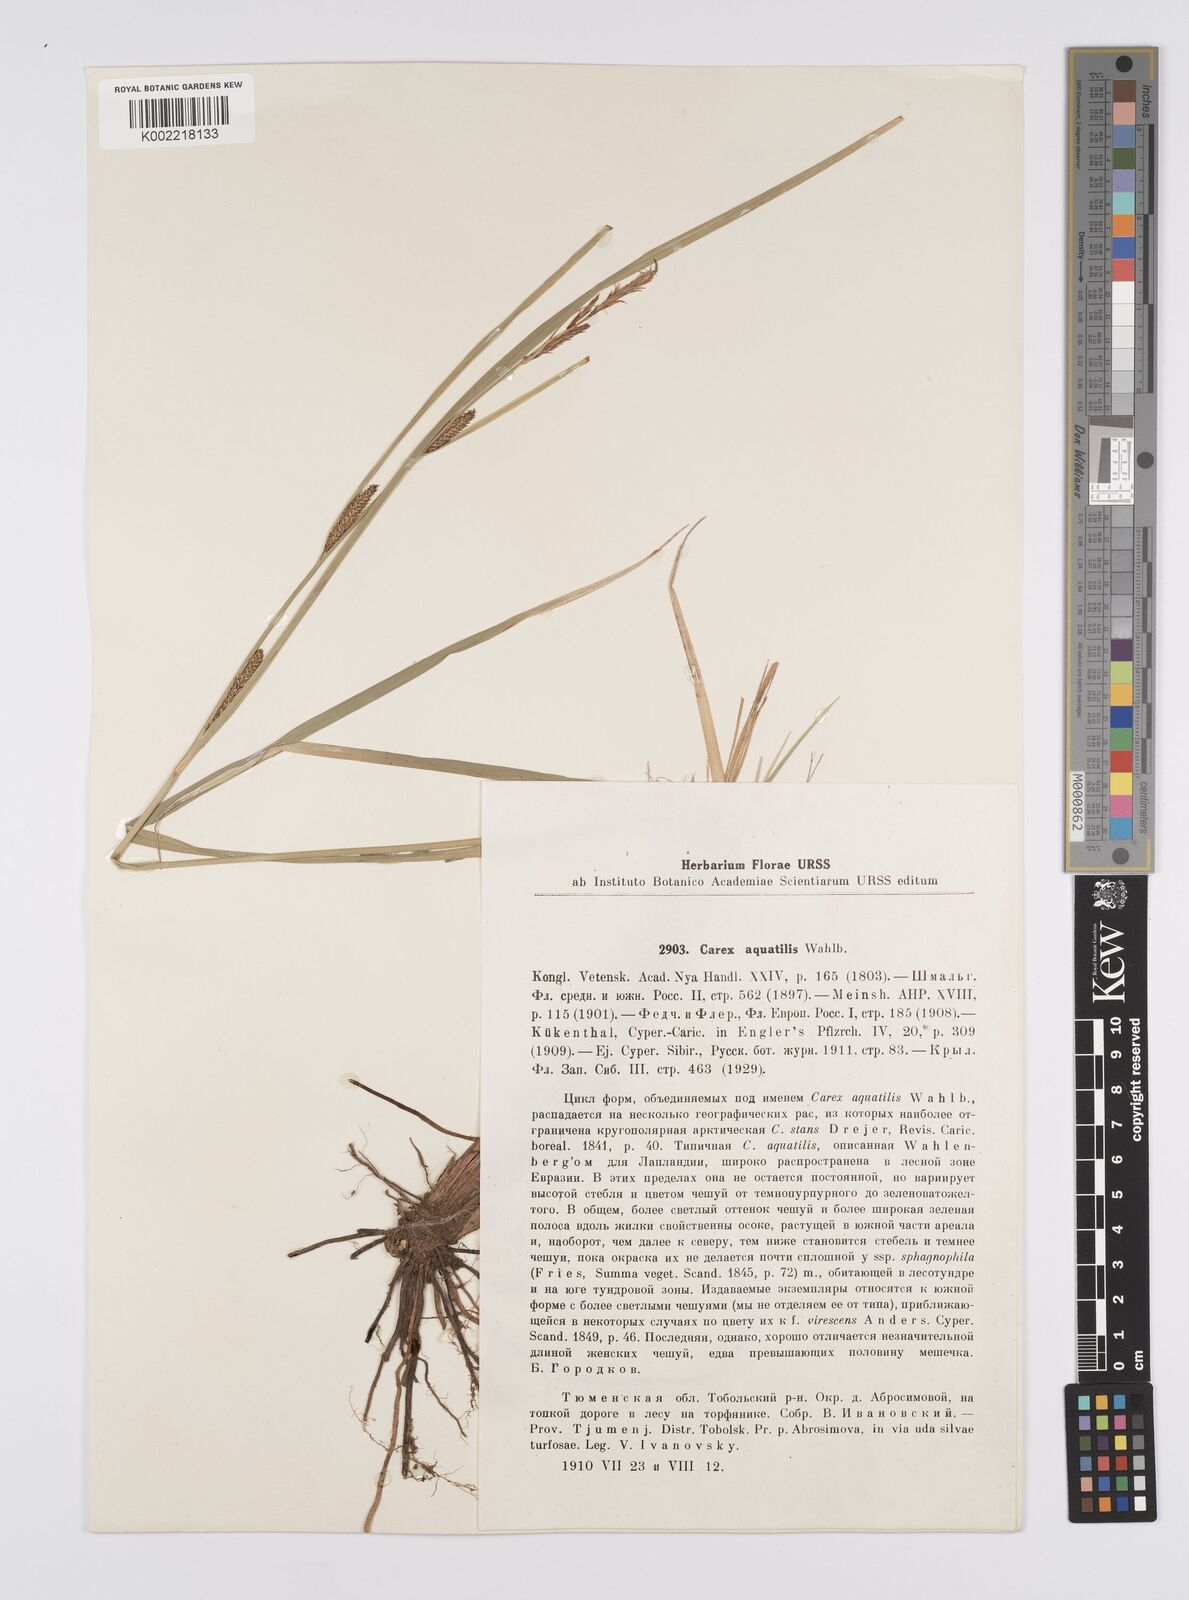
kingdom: Plantae
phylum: Tracheophyta
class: Liliopsida
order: Poales
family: Cyperaceae
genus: Carex
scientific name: Carex aquatilis
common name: Water sedge
